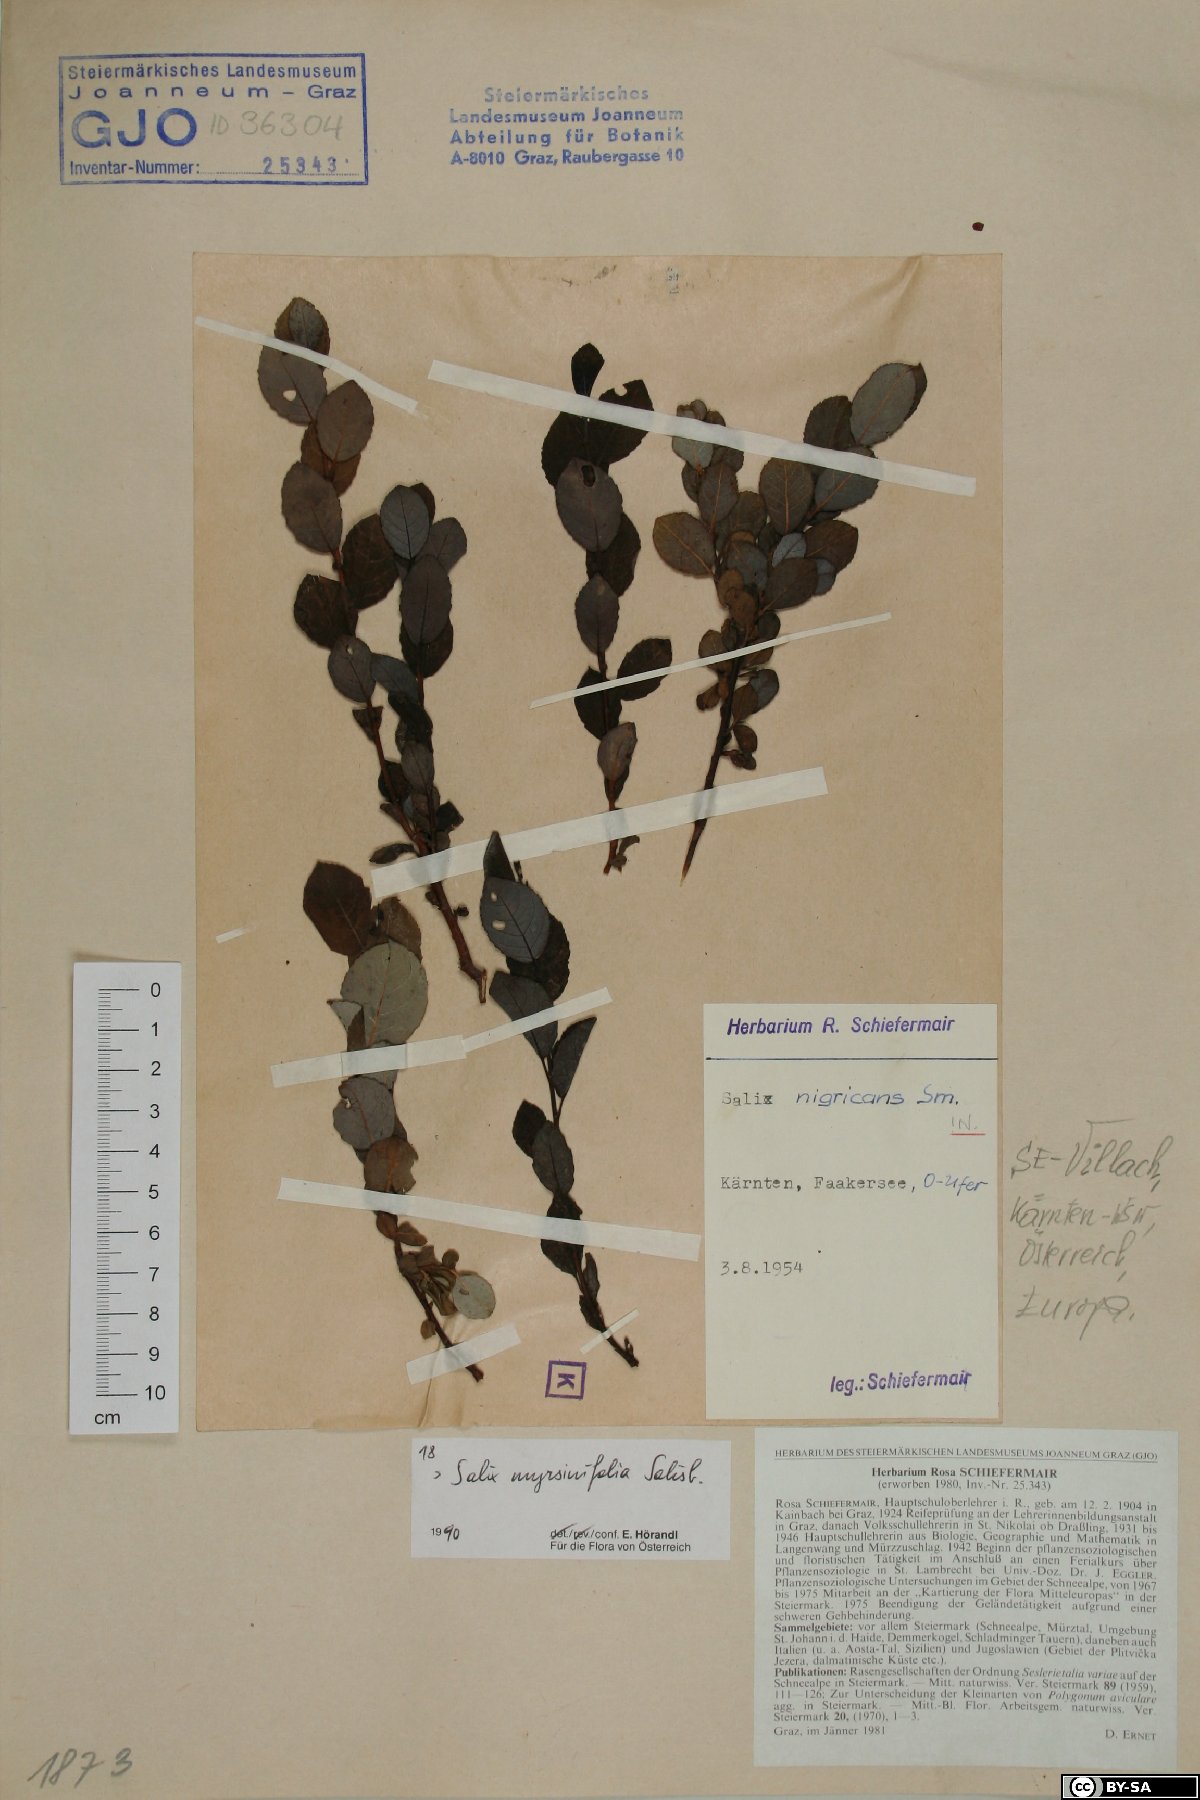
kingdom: Plantae
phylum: Tracheophyta
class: Magnoliopsida
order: Malpighiales
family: Salicaceae
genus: Salix
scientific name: Salix myrsinifolia
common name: Dark-leaved willow
